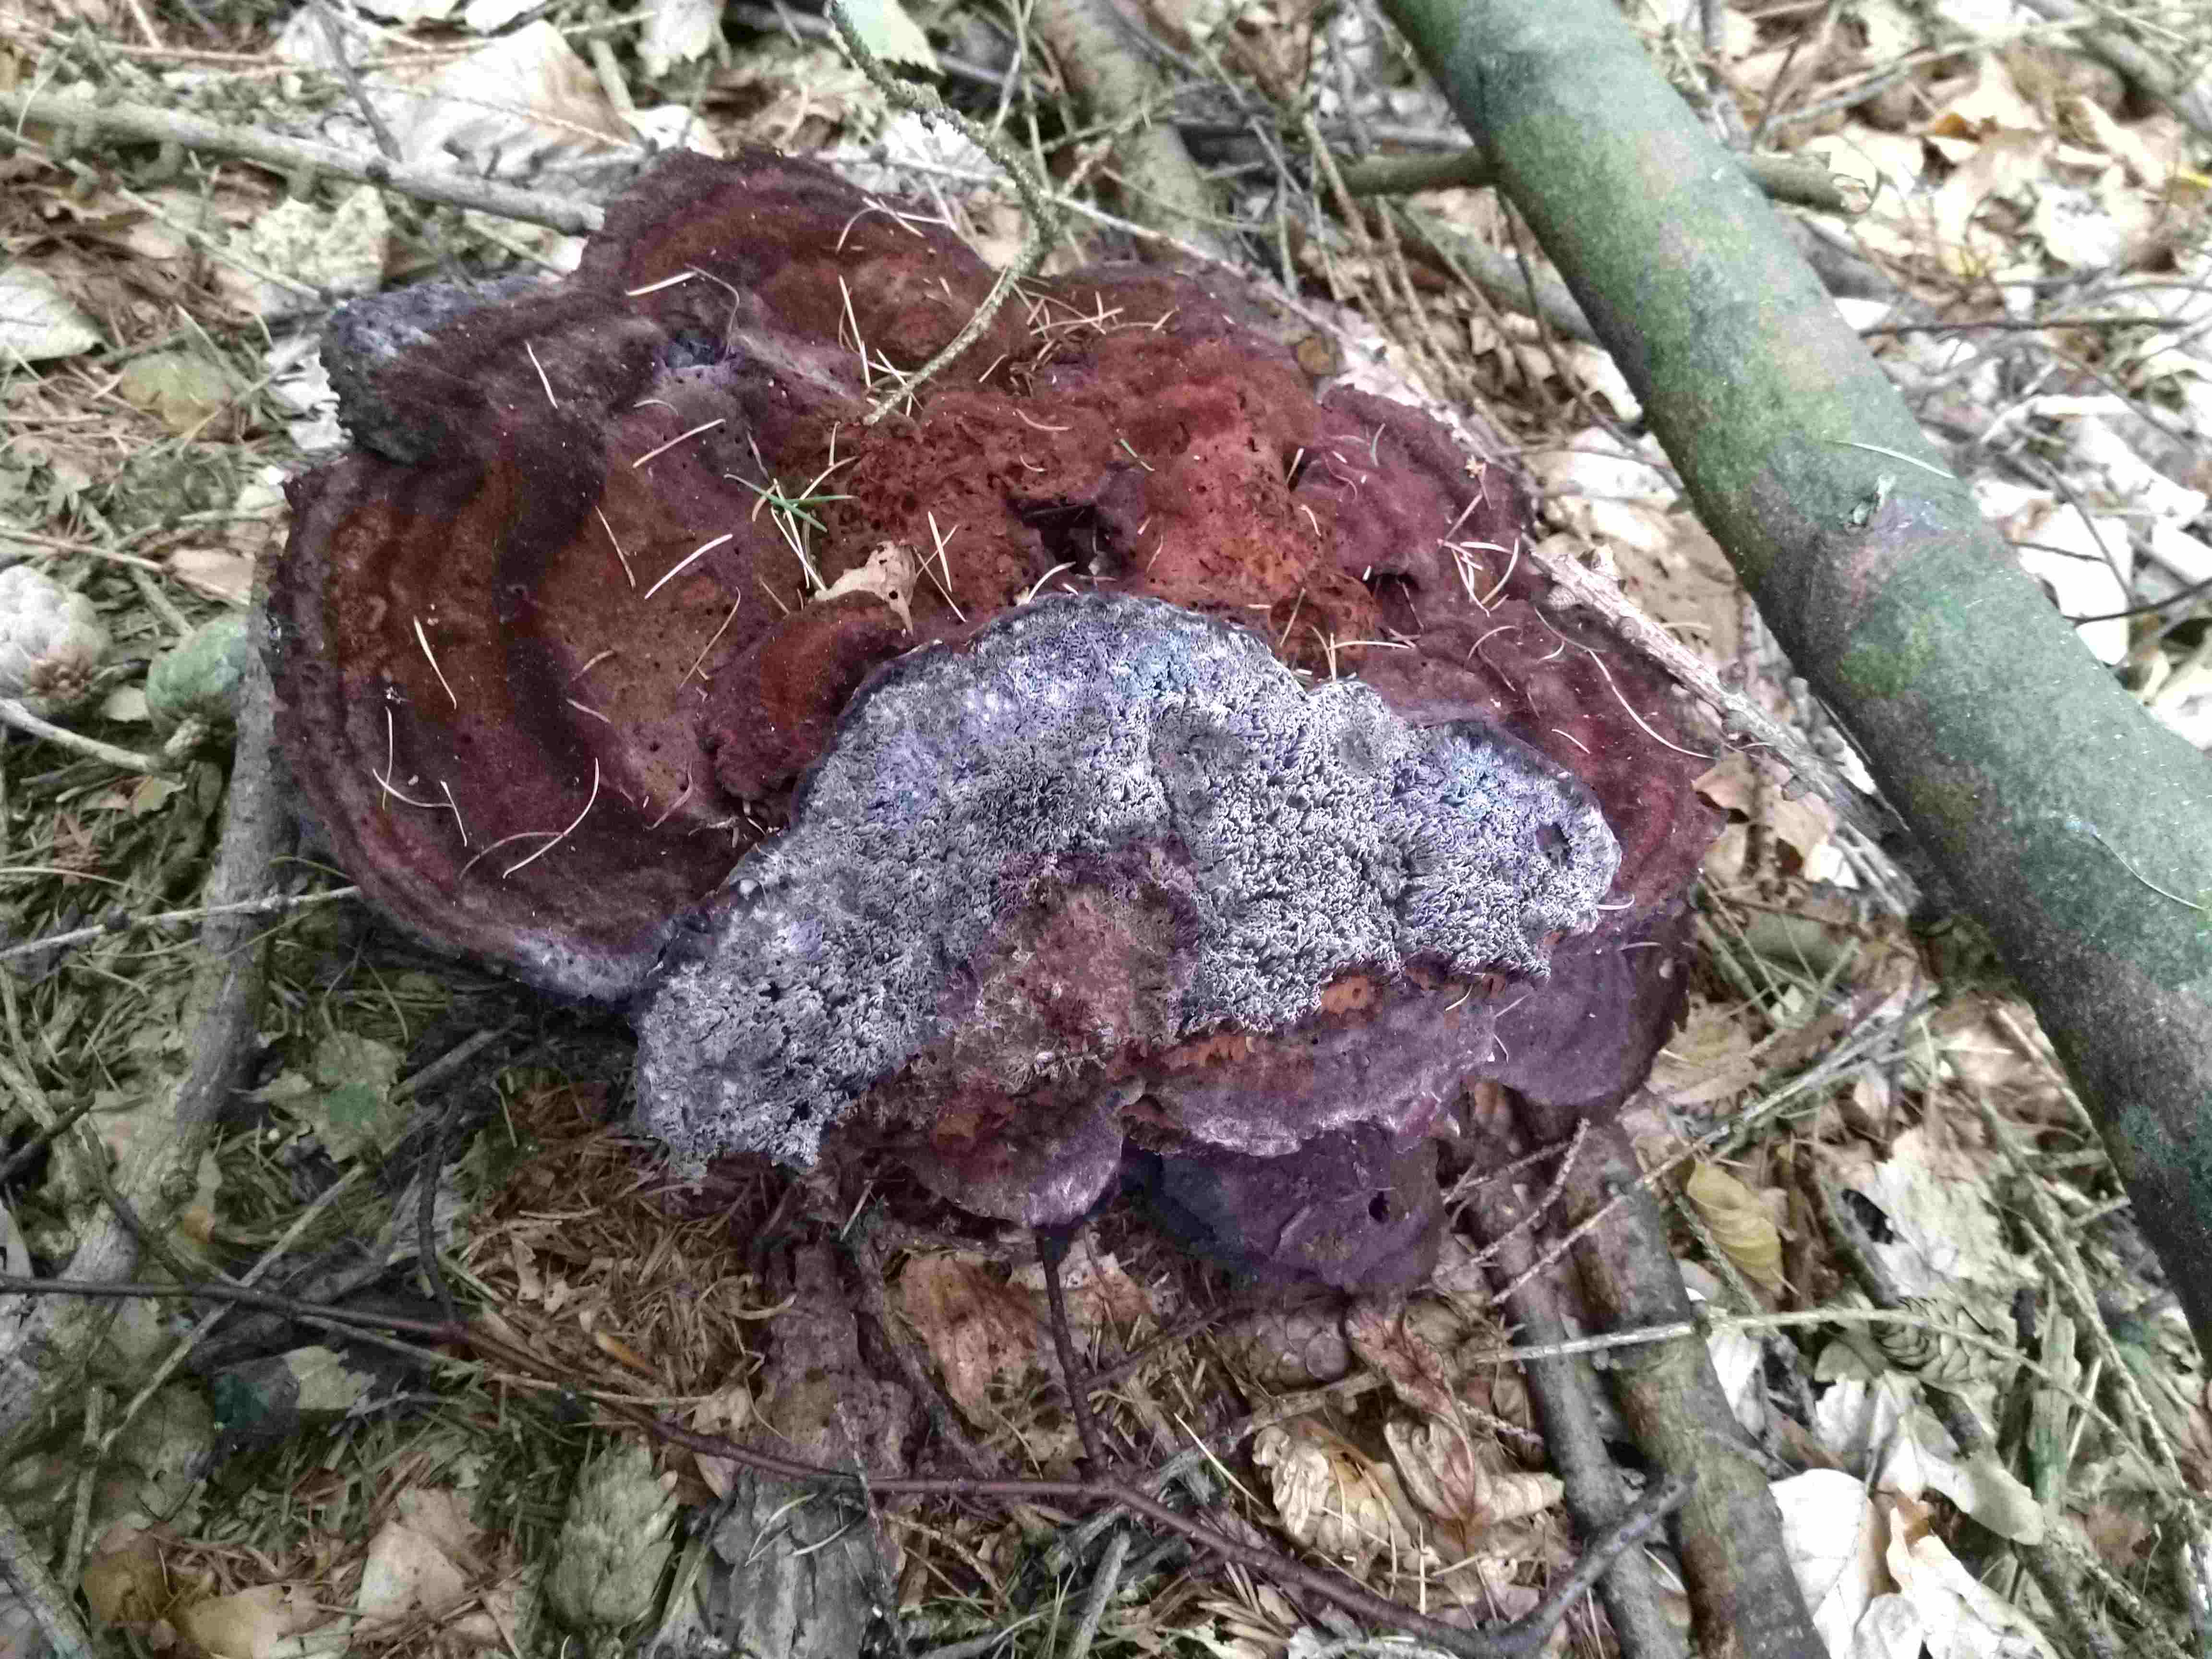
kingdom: Fungi
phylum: Basidiomycota
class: Agaricomycetes
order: Polyporales
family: Laetiporaceae
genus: Phaeolus
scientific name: Phaeolus schweinitzii
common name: brunporesvamp
